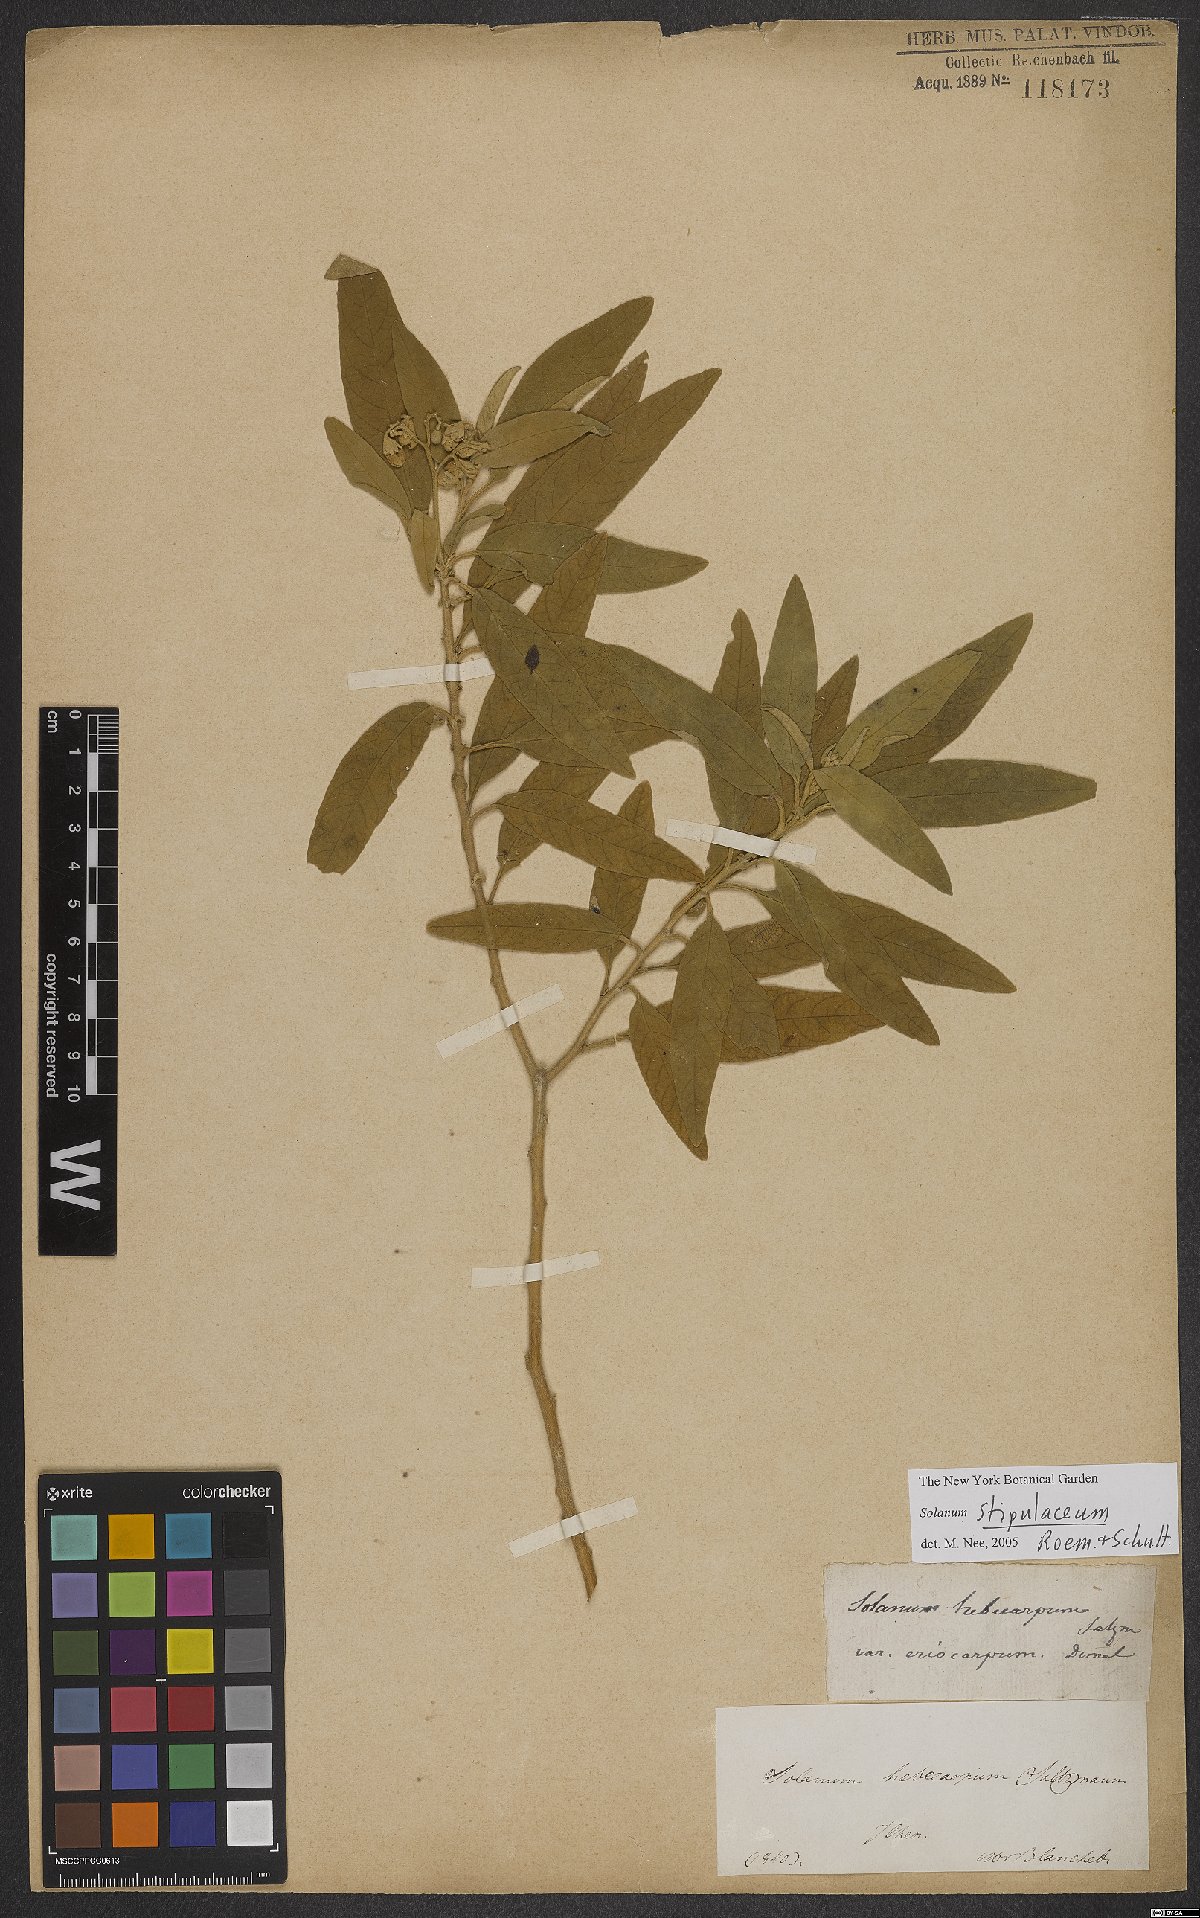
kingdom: Plantae
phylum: Tracheophyta
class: Magnoliopsida
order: Solanales
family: Solanaceae
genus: Solanum
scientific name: Solanum stipulaceum
